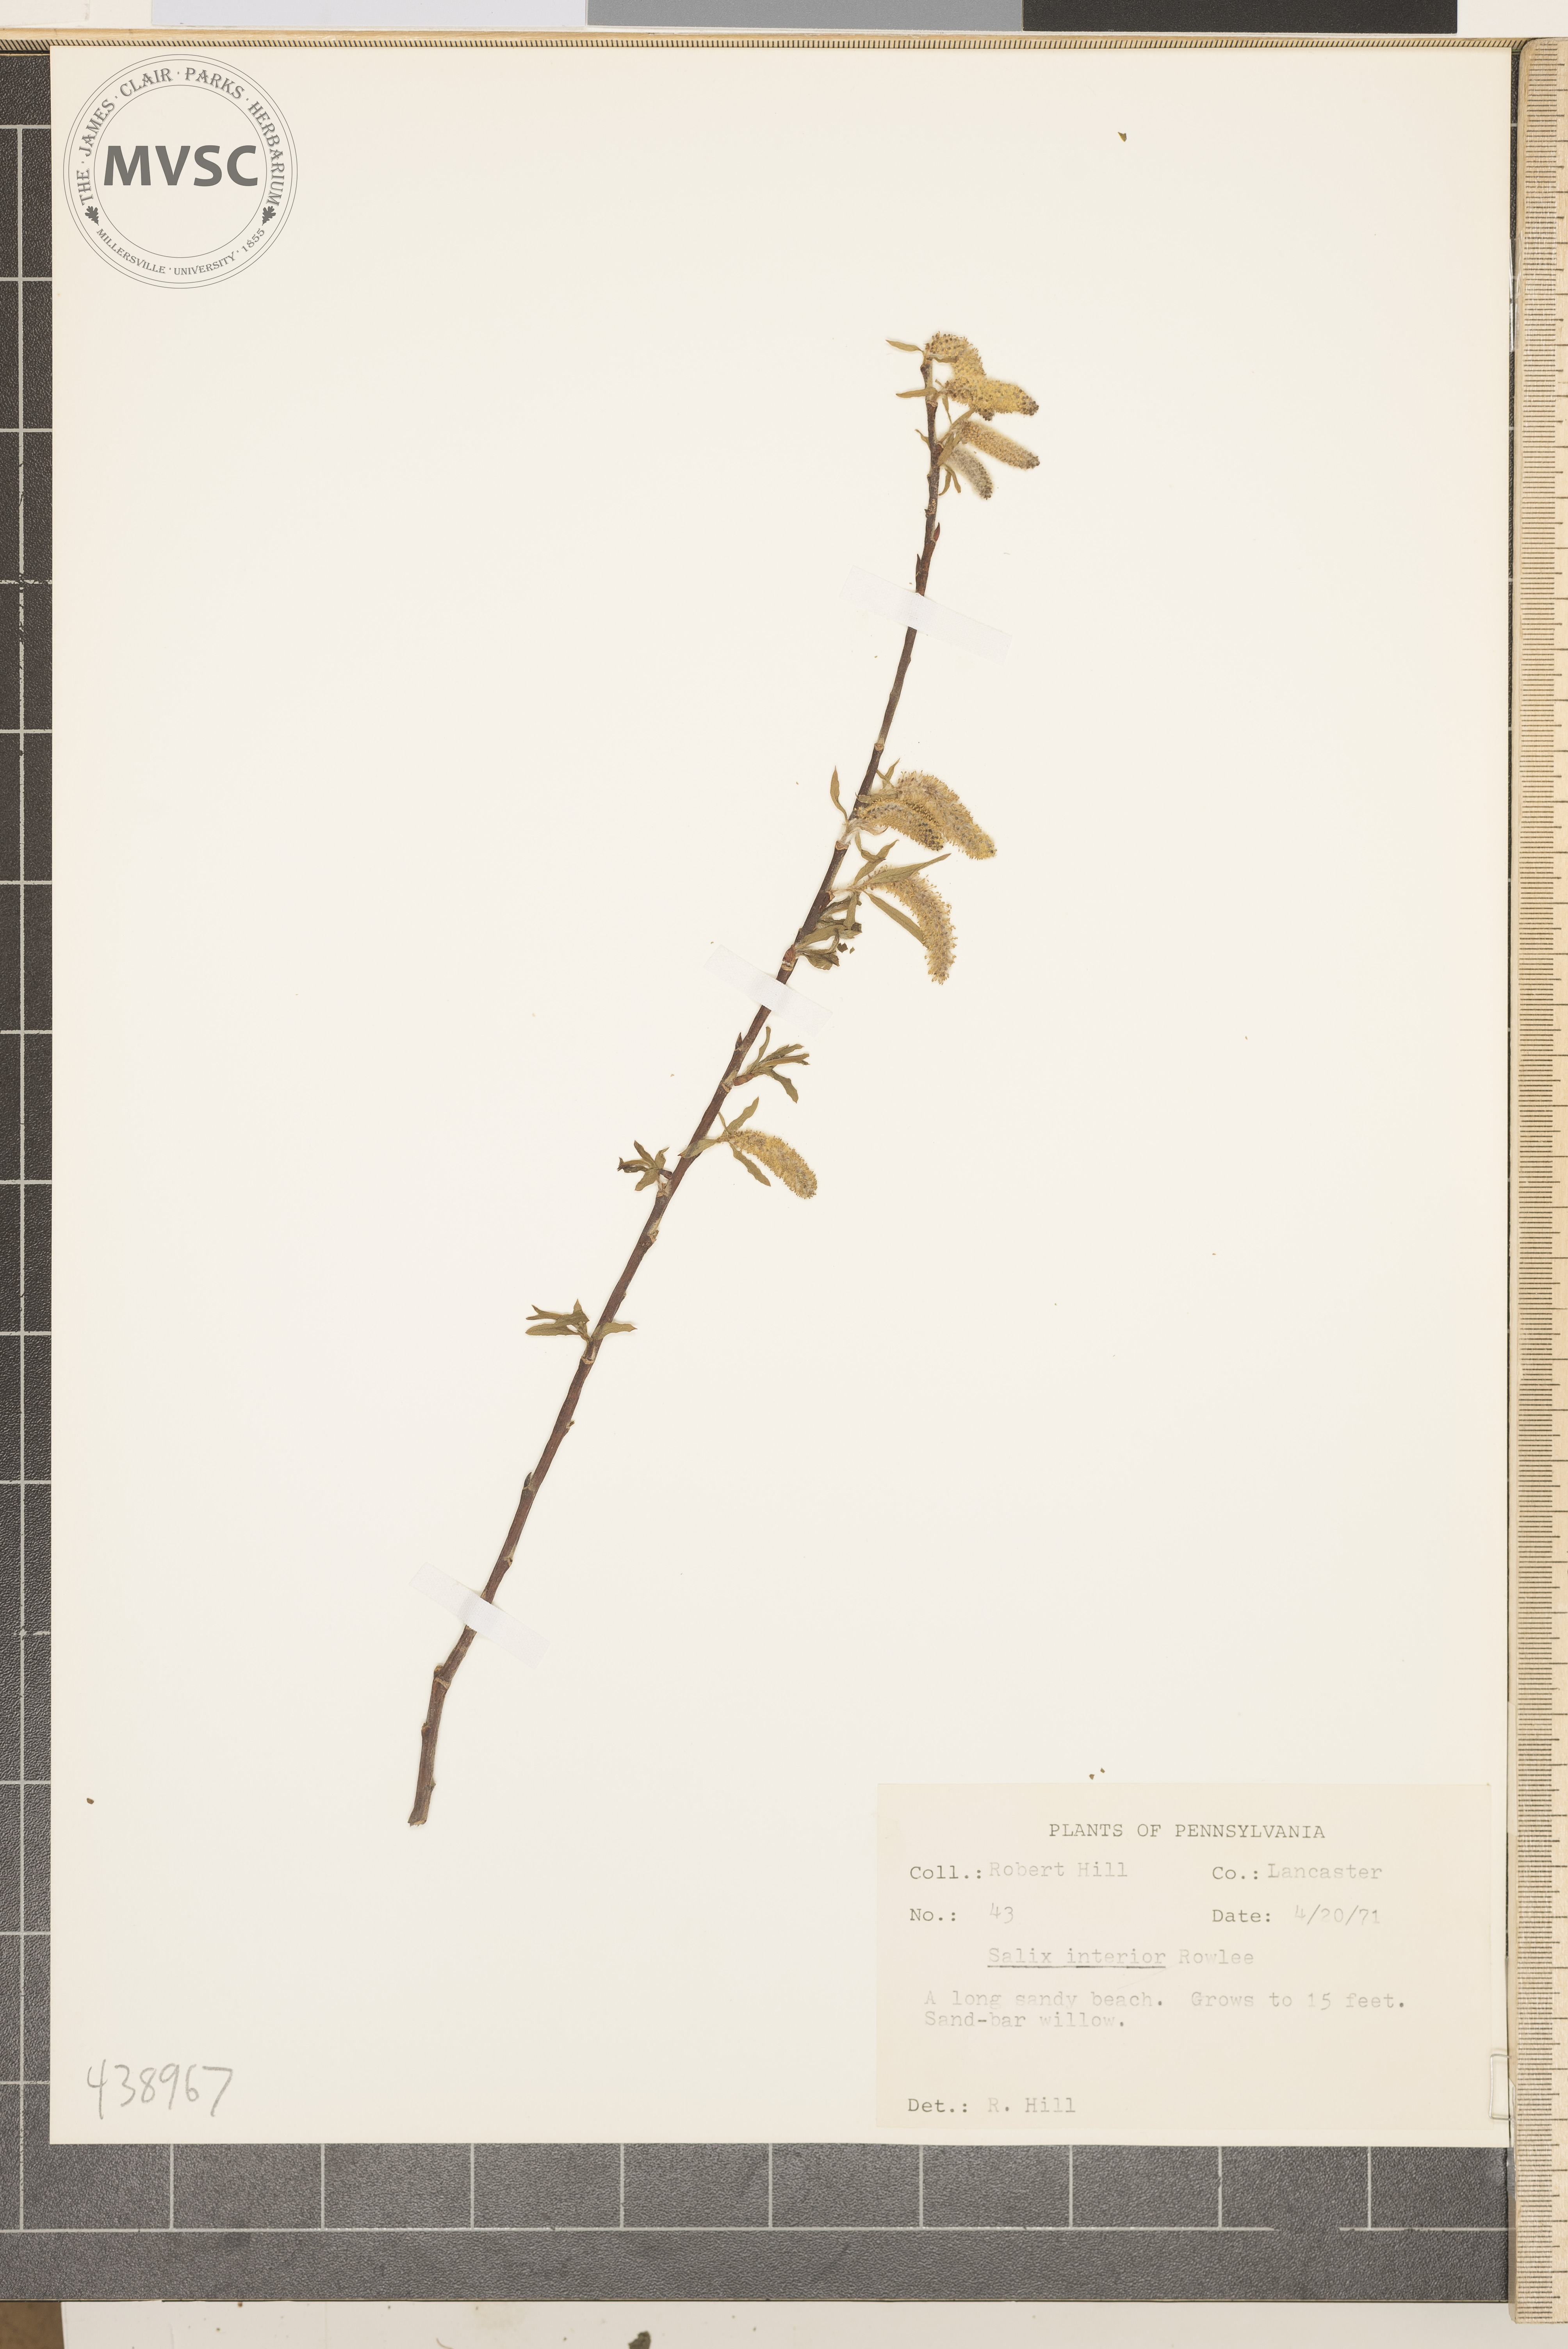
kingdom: Plantae
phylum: Tracheophyta
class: Magnoliopsida
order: Malpighiales
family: Salicaceae
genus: Salix
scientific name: Salix interior
